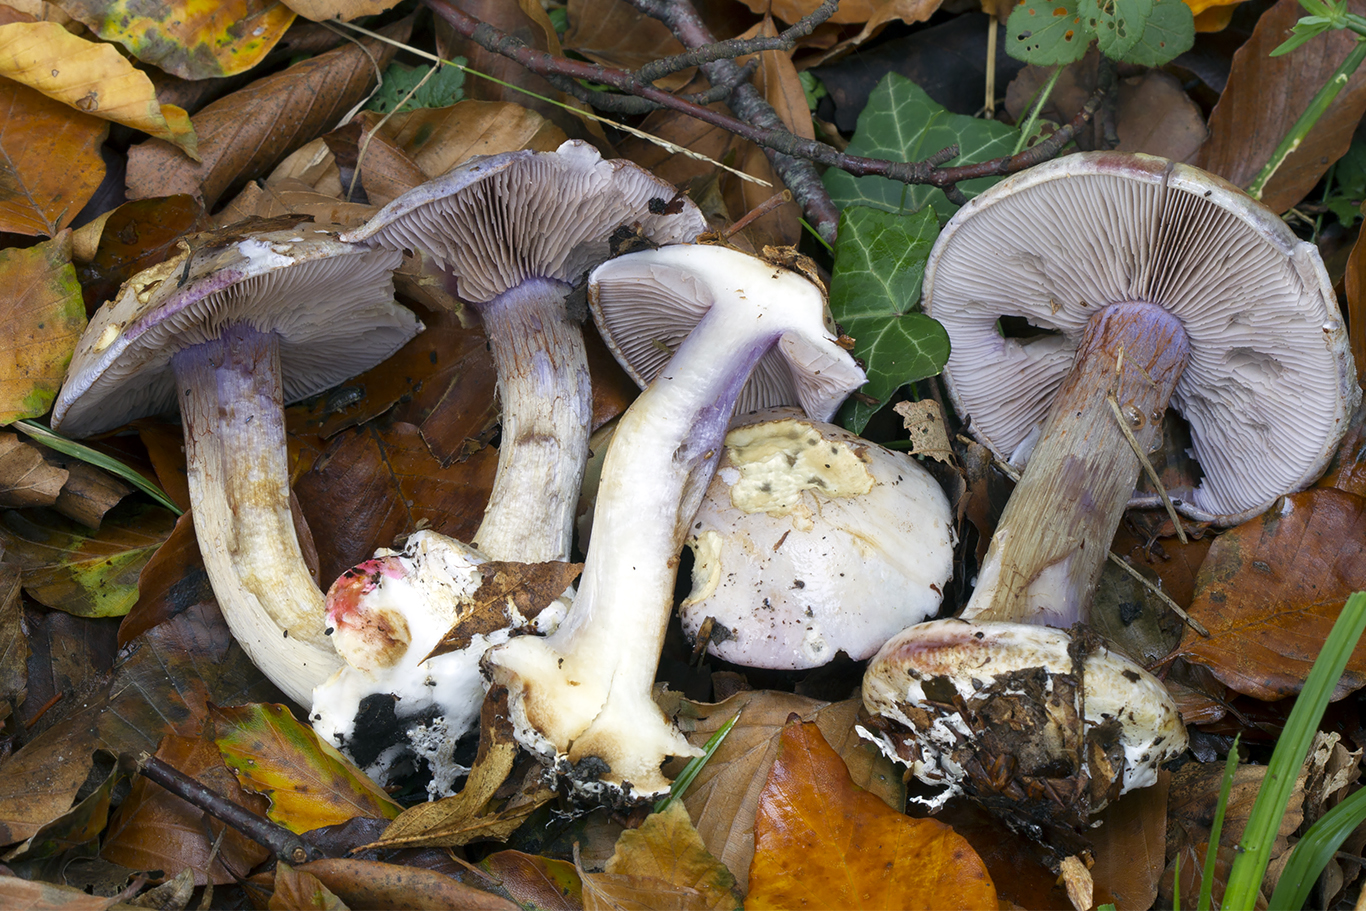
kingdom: Fungi
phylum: Basidiomycota
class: Agaricomycetes
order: Agaricales
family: Cortinariaceae
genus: Calonarius
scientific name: Calonarius violaceipes
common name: stedmoder-slørhat
